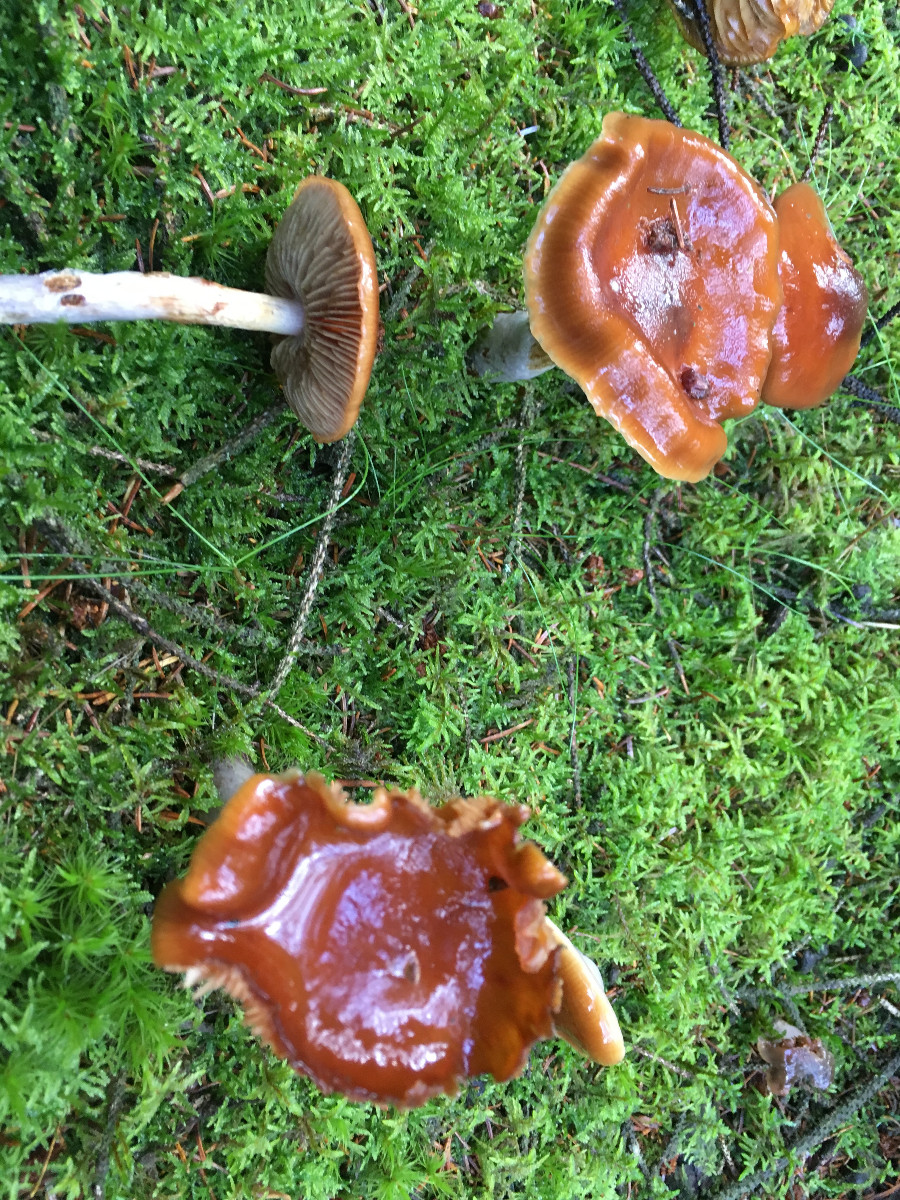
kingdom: Fungi
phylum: Basidiomycota
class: Agaricomycetes
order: Agaricales
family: Cortinariaceae
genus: Cortinarius
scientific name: Cortinarius
